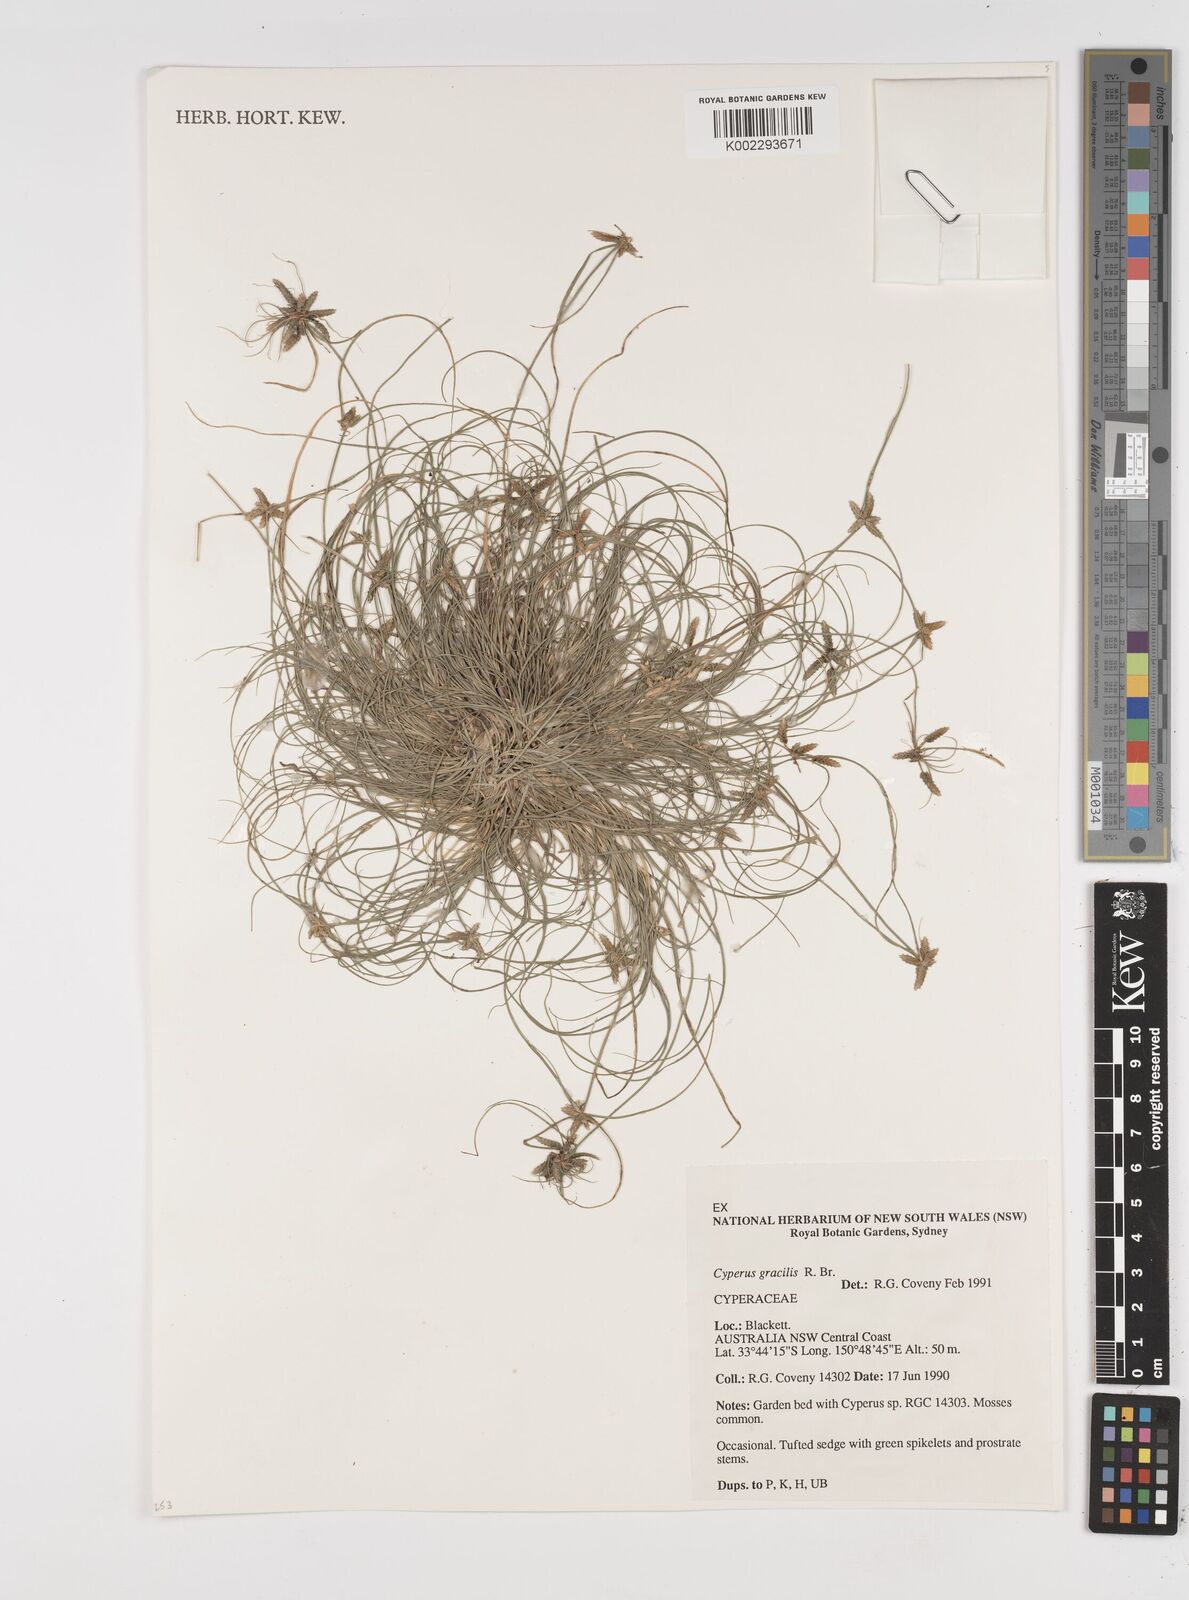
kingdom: Plantae
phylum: Tracheophyta
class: Liliopsida
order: Poales
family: Cyperaceae
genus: Cyperus
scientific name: Cyperus gracilis
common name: Slimjim flatsedge
